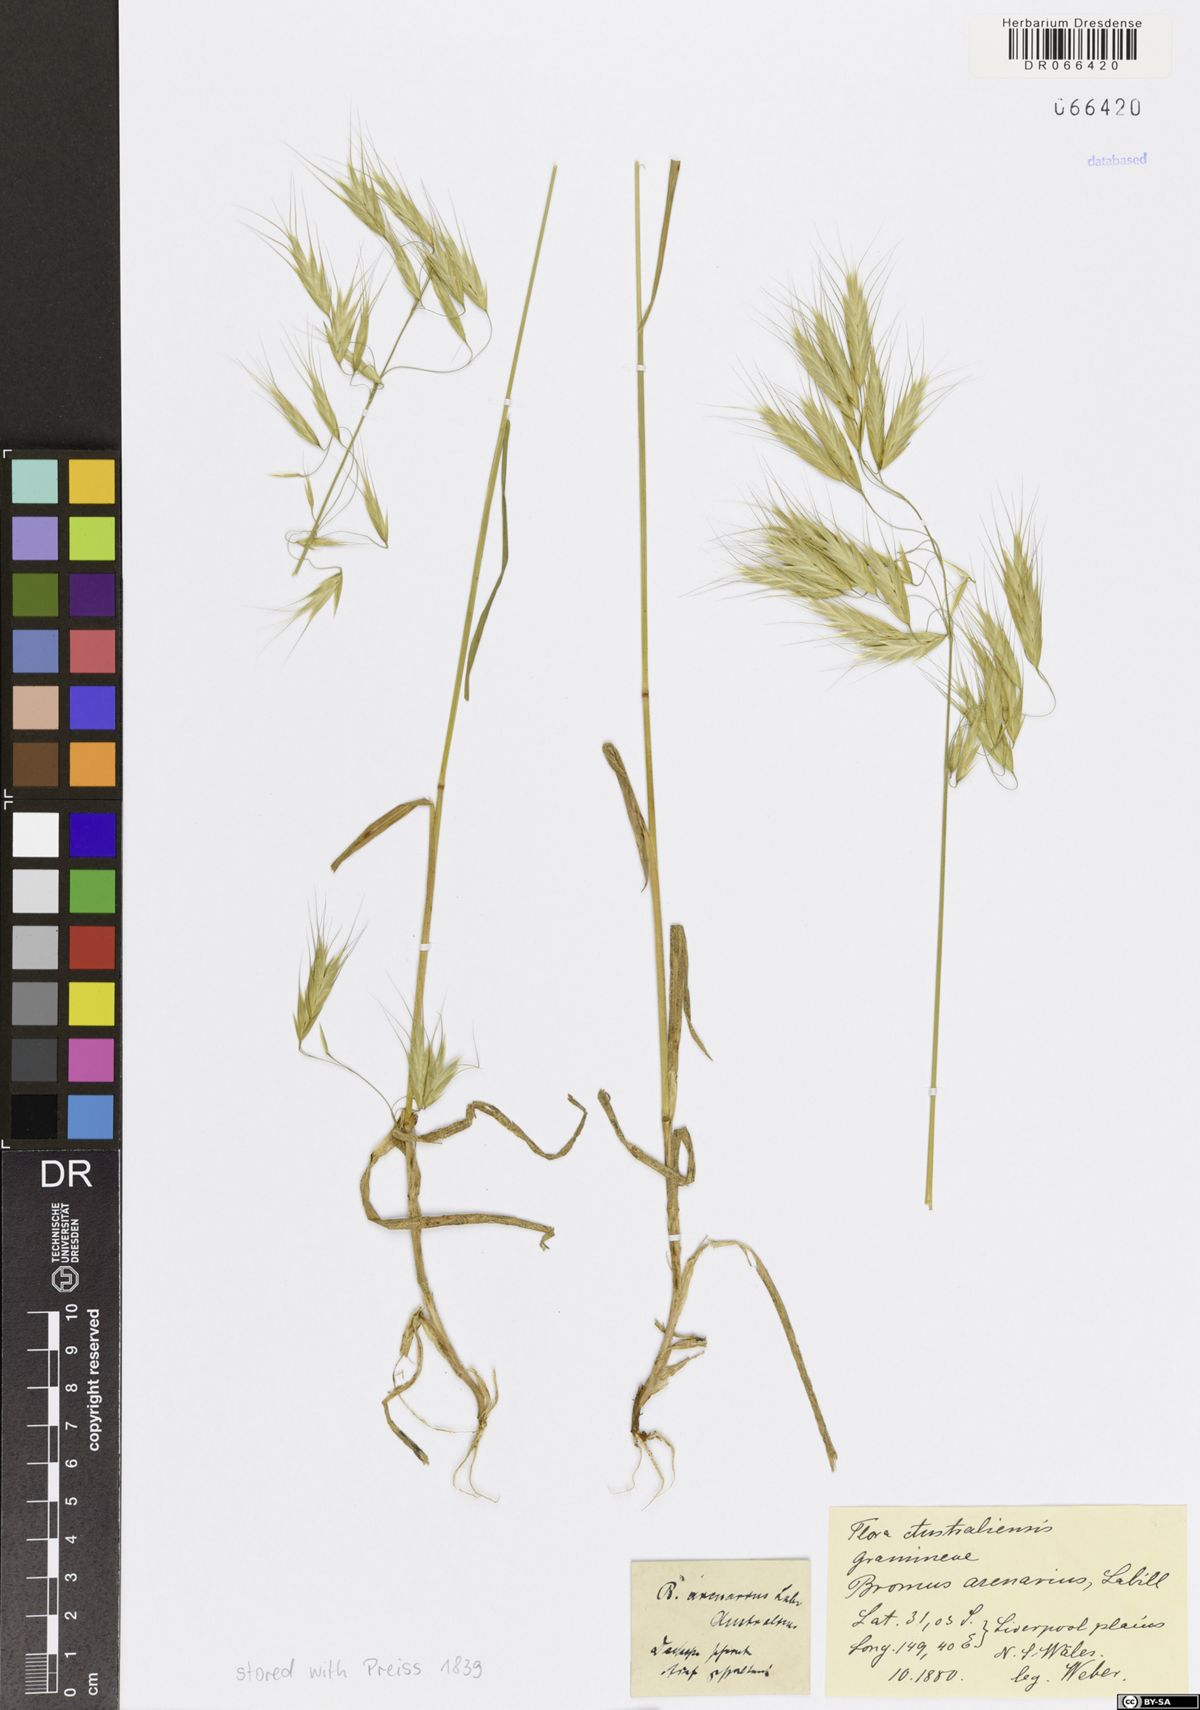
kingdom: Plantae
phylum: Tracheophyta
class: Liliopsida
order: Poales
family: Poaceae
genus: Bromus
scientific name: Bromus arenarius
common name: Australian brome
